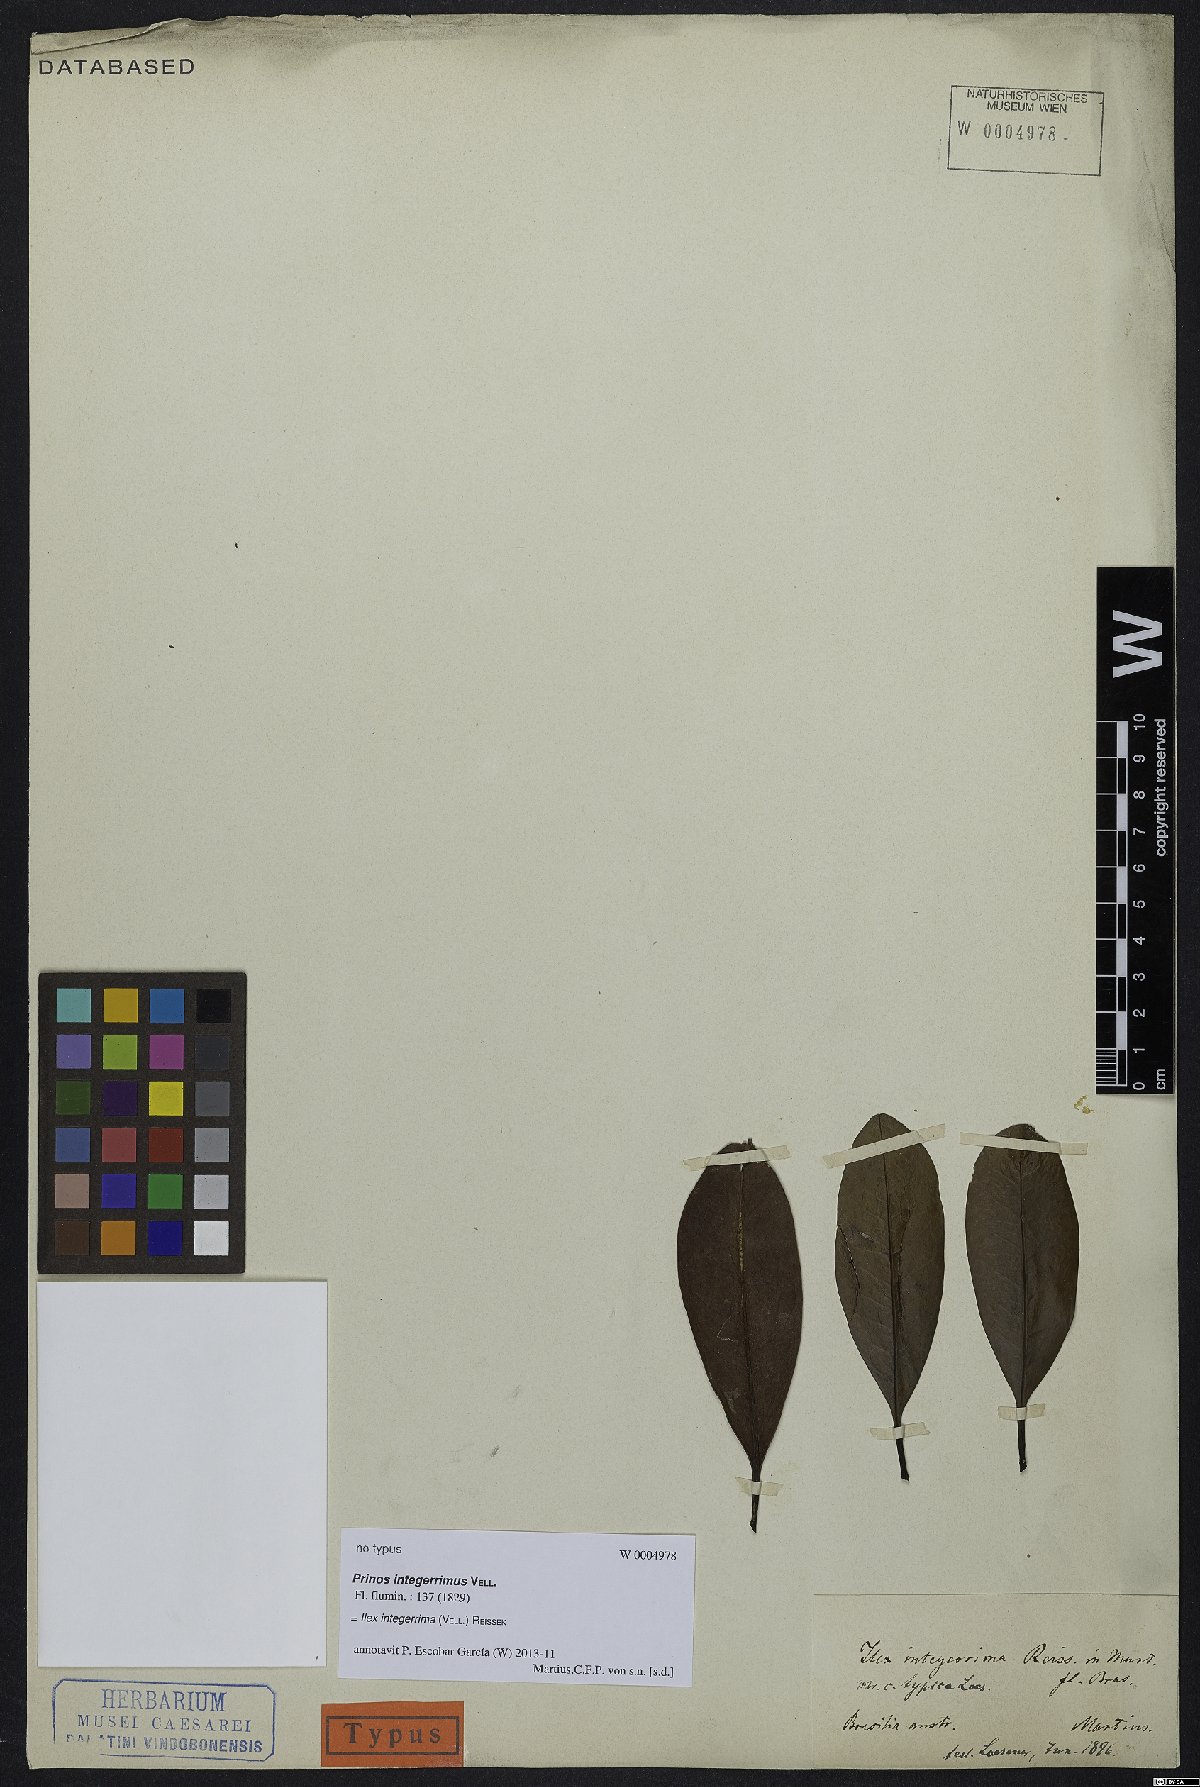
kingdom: Plantae
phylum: Tracheophyta
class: Magnoliopsida
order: Aquifoliales
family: Aquifoliaceae
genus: Ilex
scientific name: Ilex integerrima
